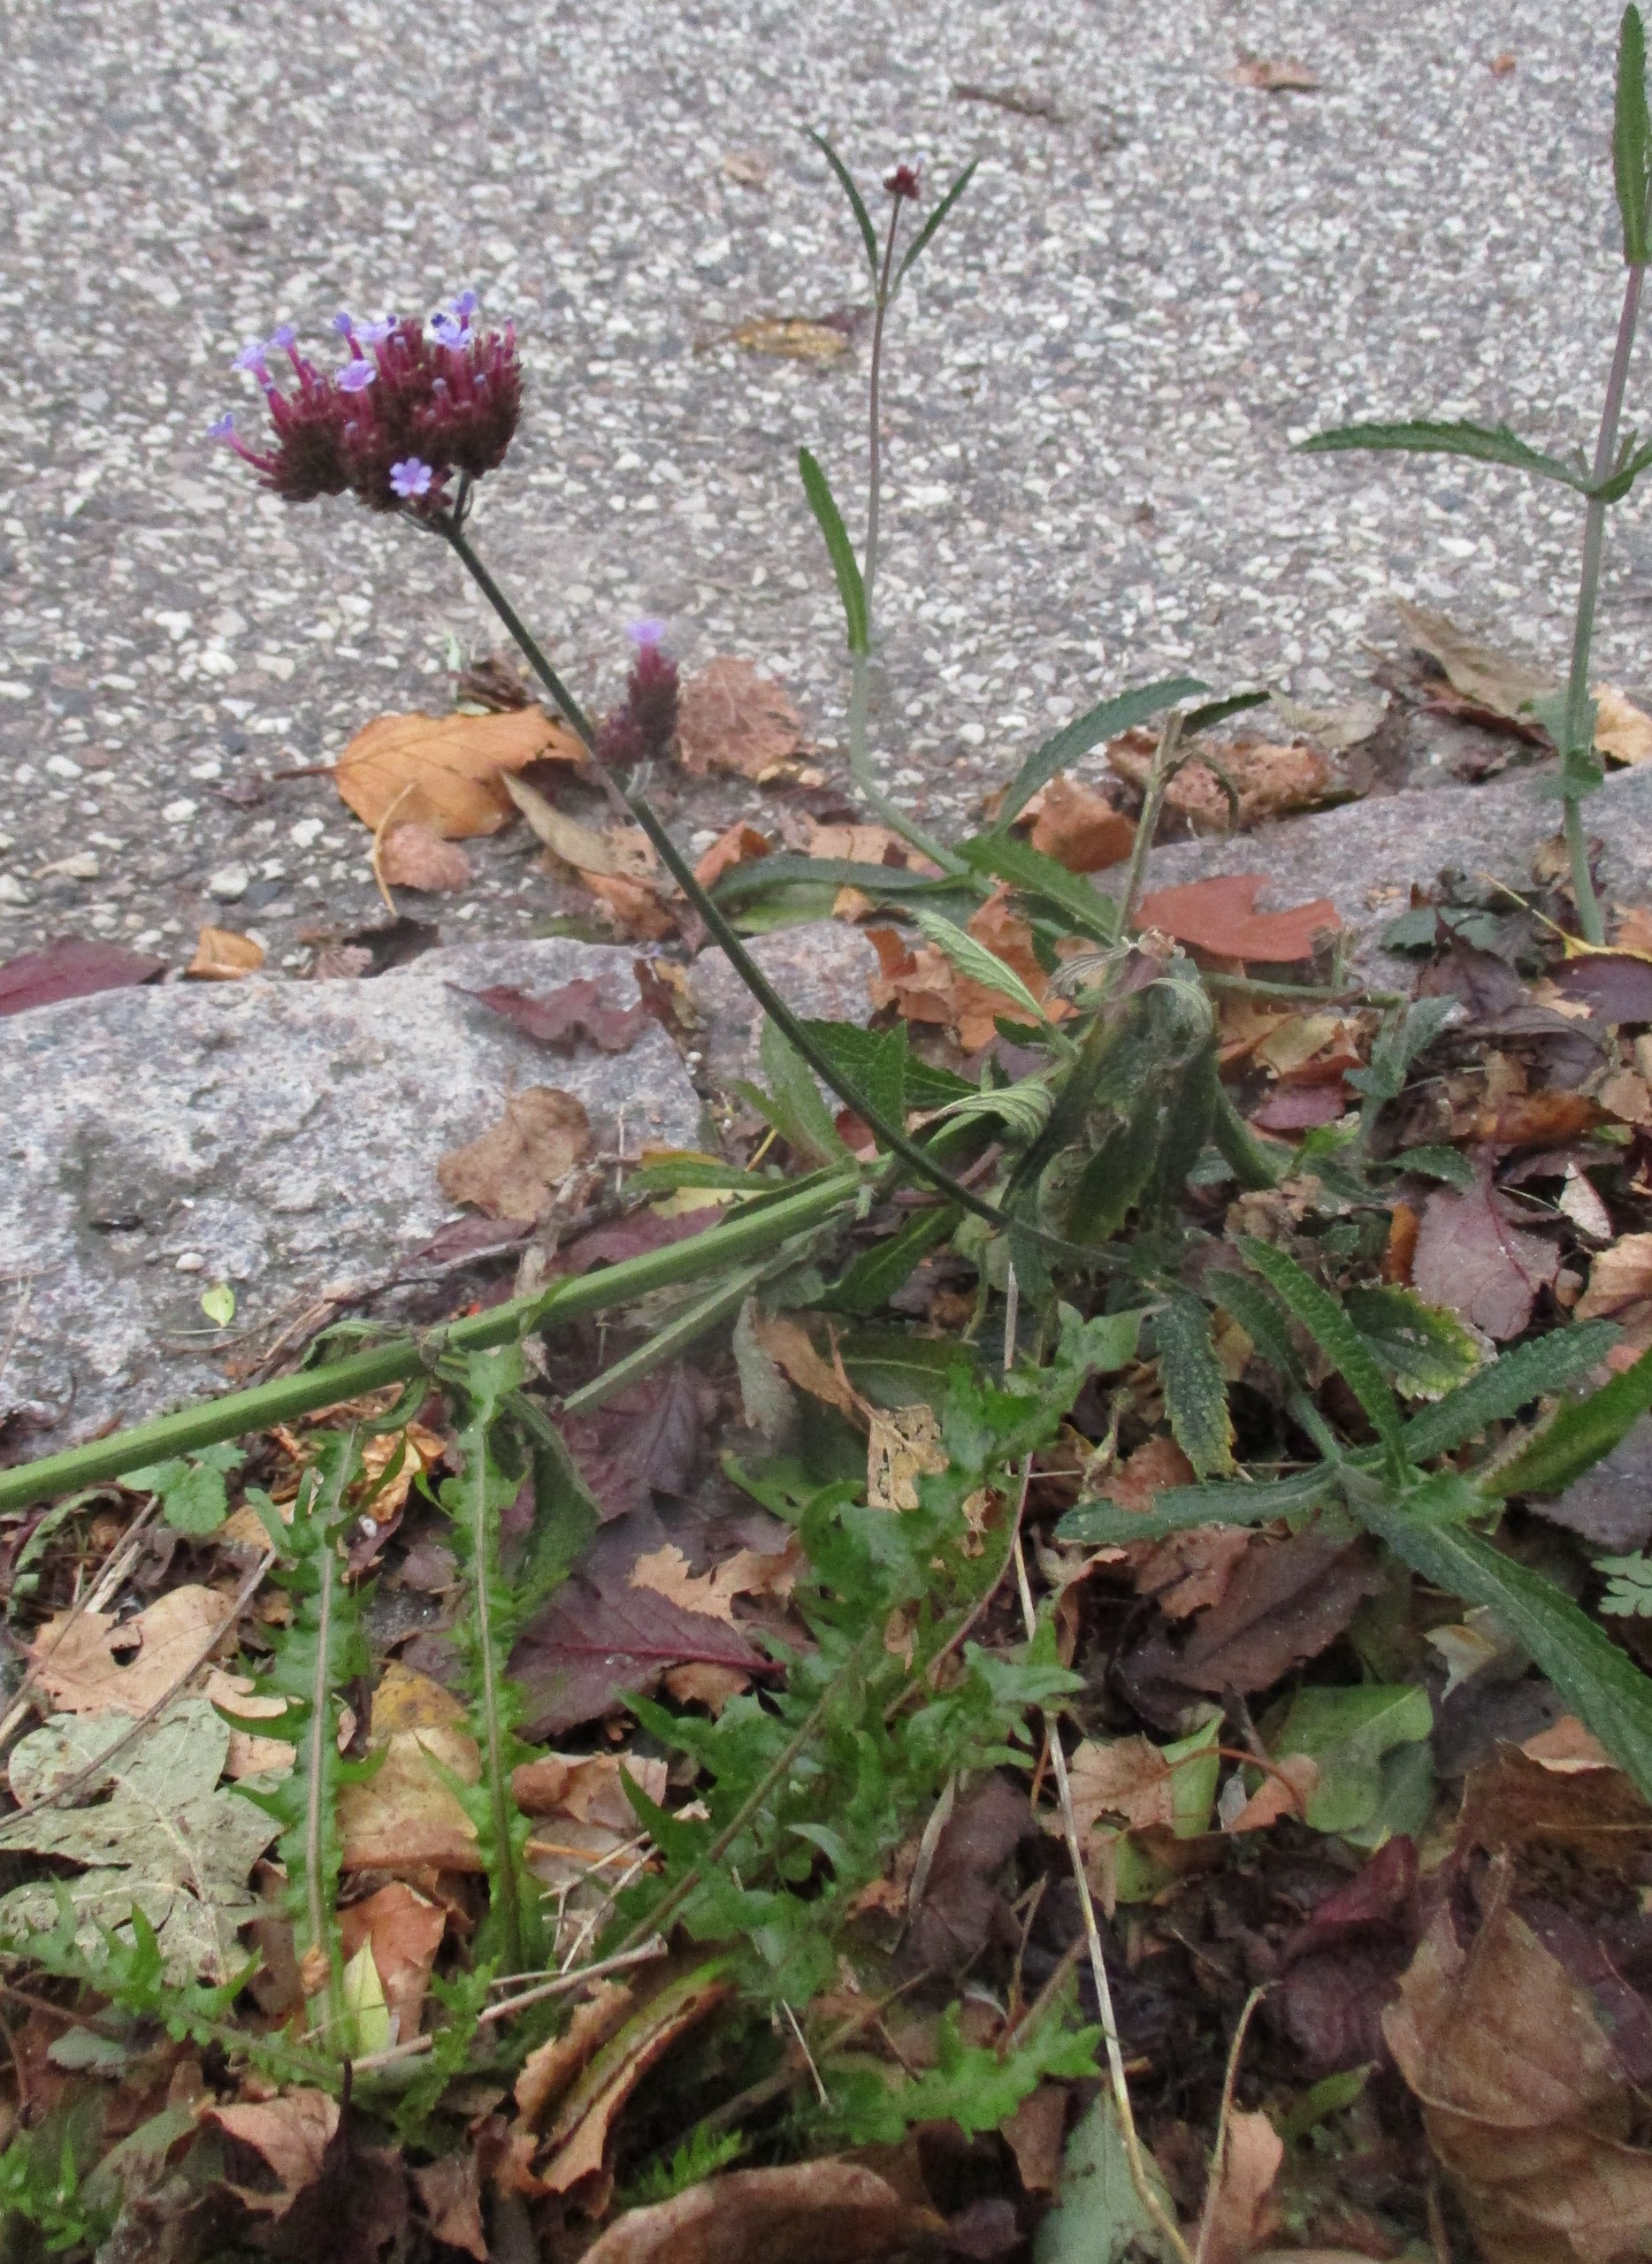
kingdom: Plantae
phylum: Tracheophyta
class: Magnoliopsida
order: Lamiales
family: Verbenaceae
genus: Verbena
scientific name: Verbena bonariensis
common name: Kæmpe-jernurt
